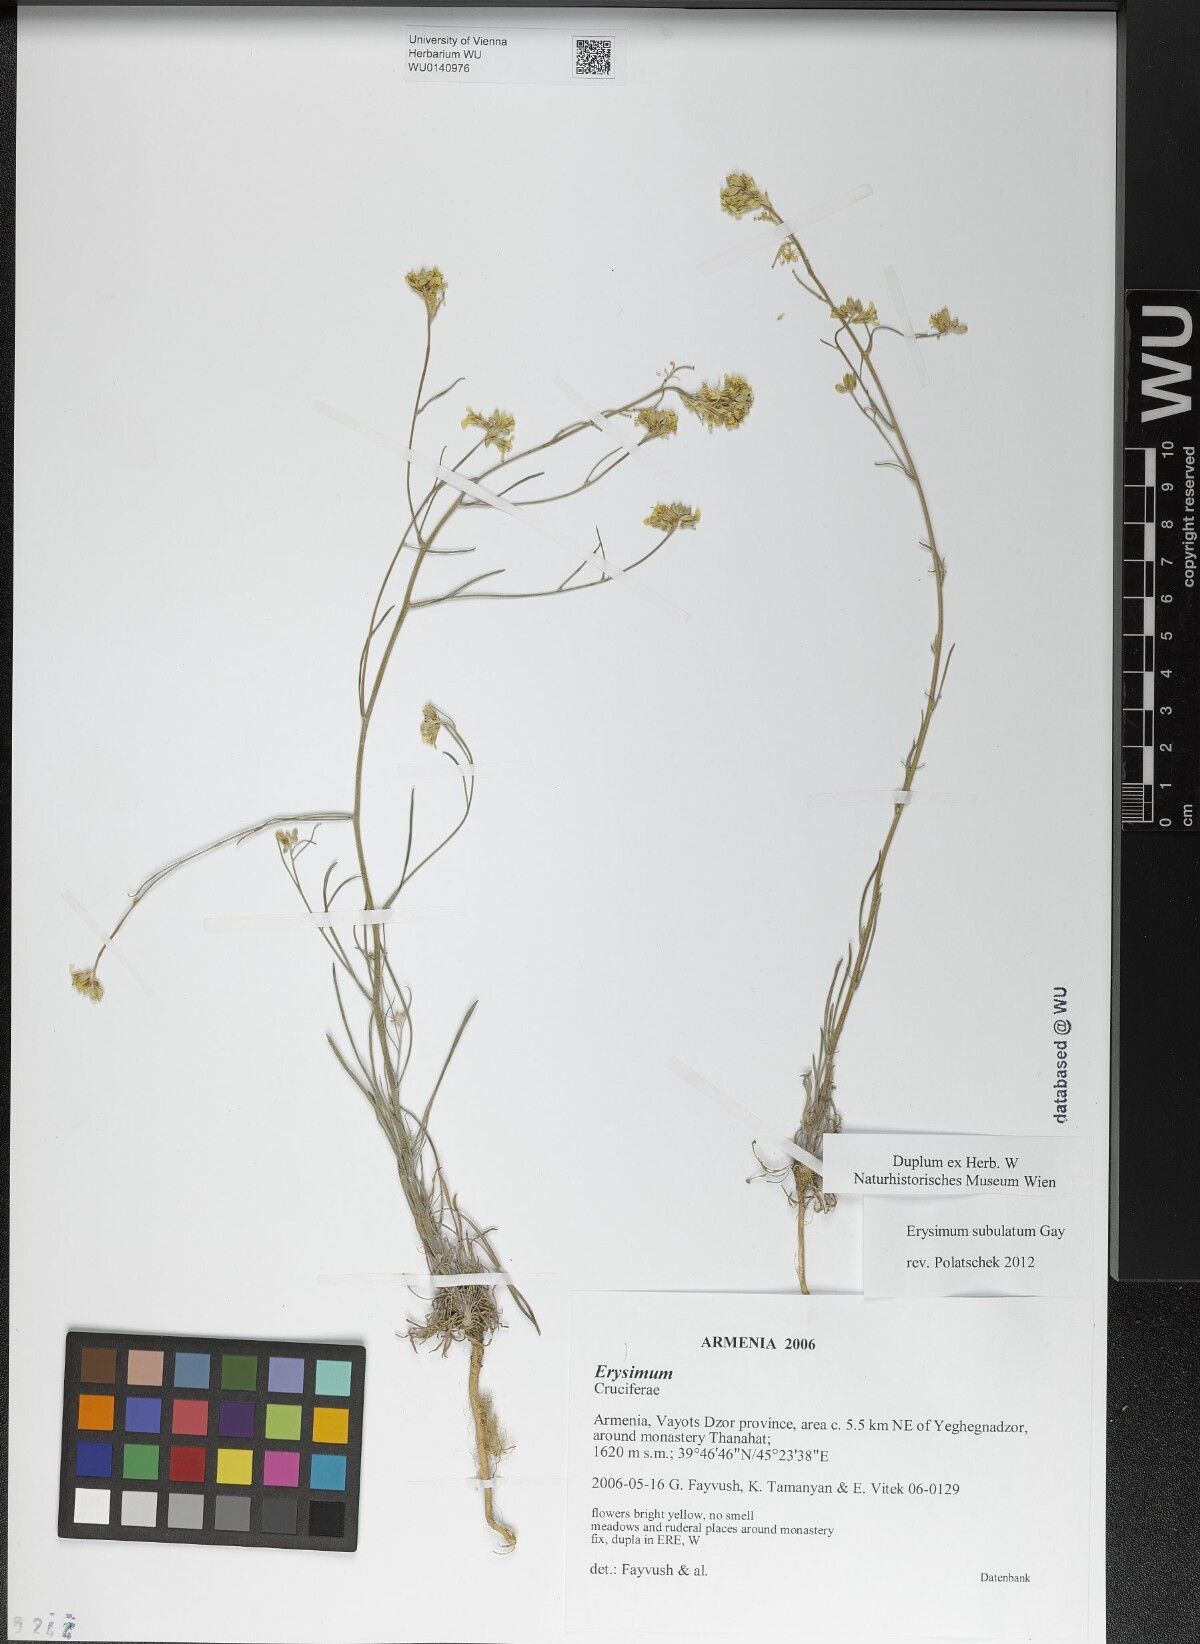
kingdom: Plantae
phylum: Tracheophyta
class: Magnoliopsida
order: Brassicales
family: Brassicaceae
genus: Erysimum
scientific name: Erysimum subulatum
